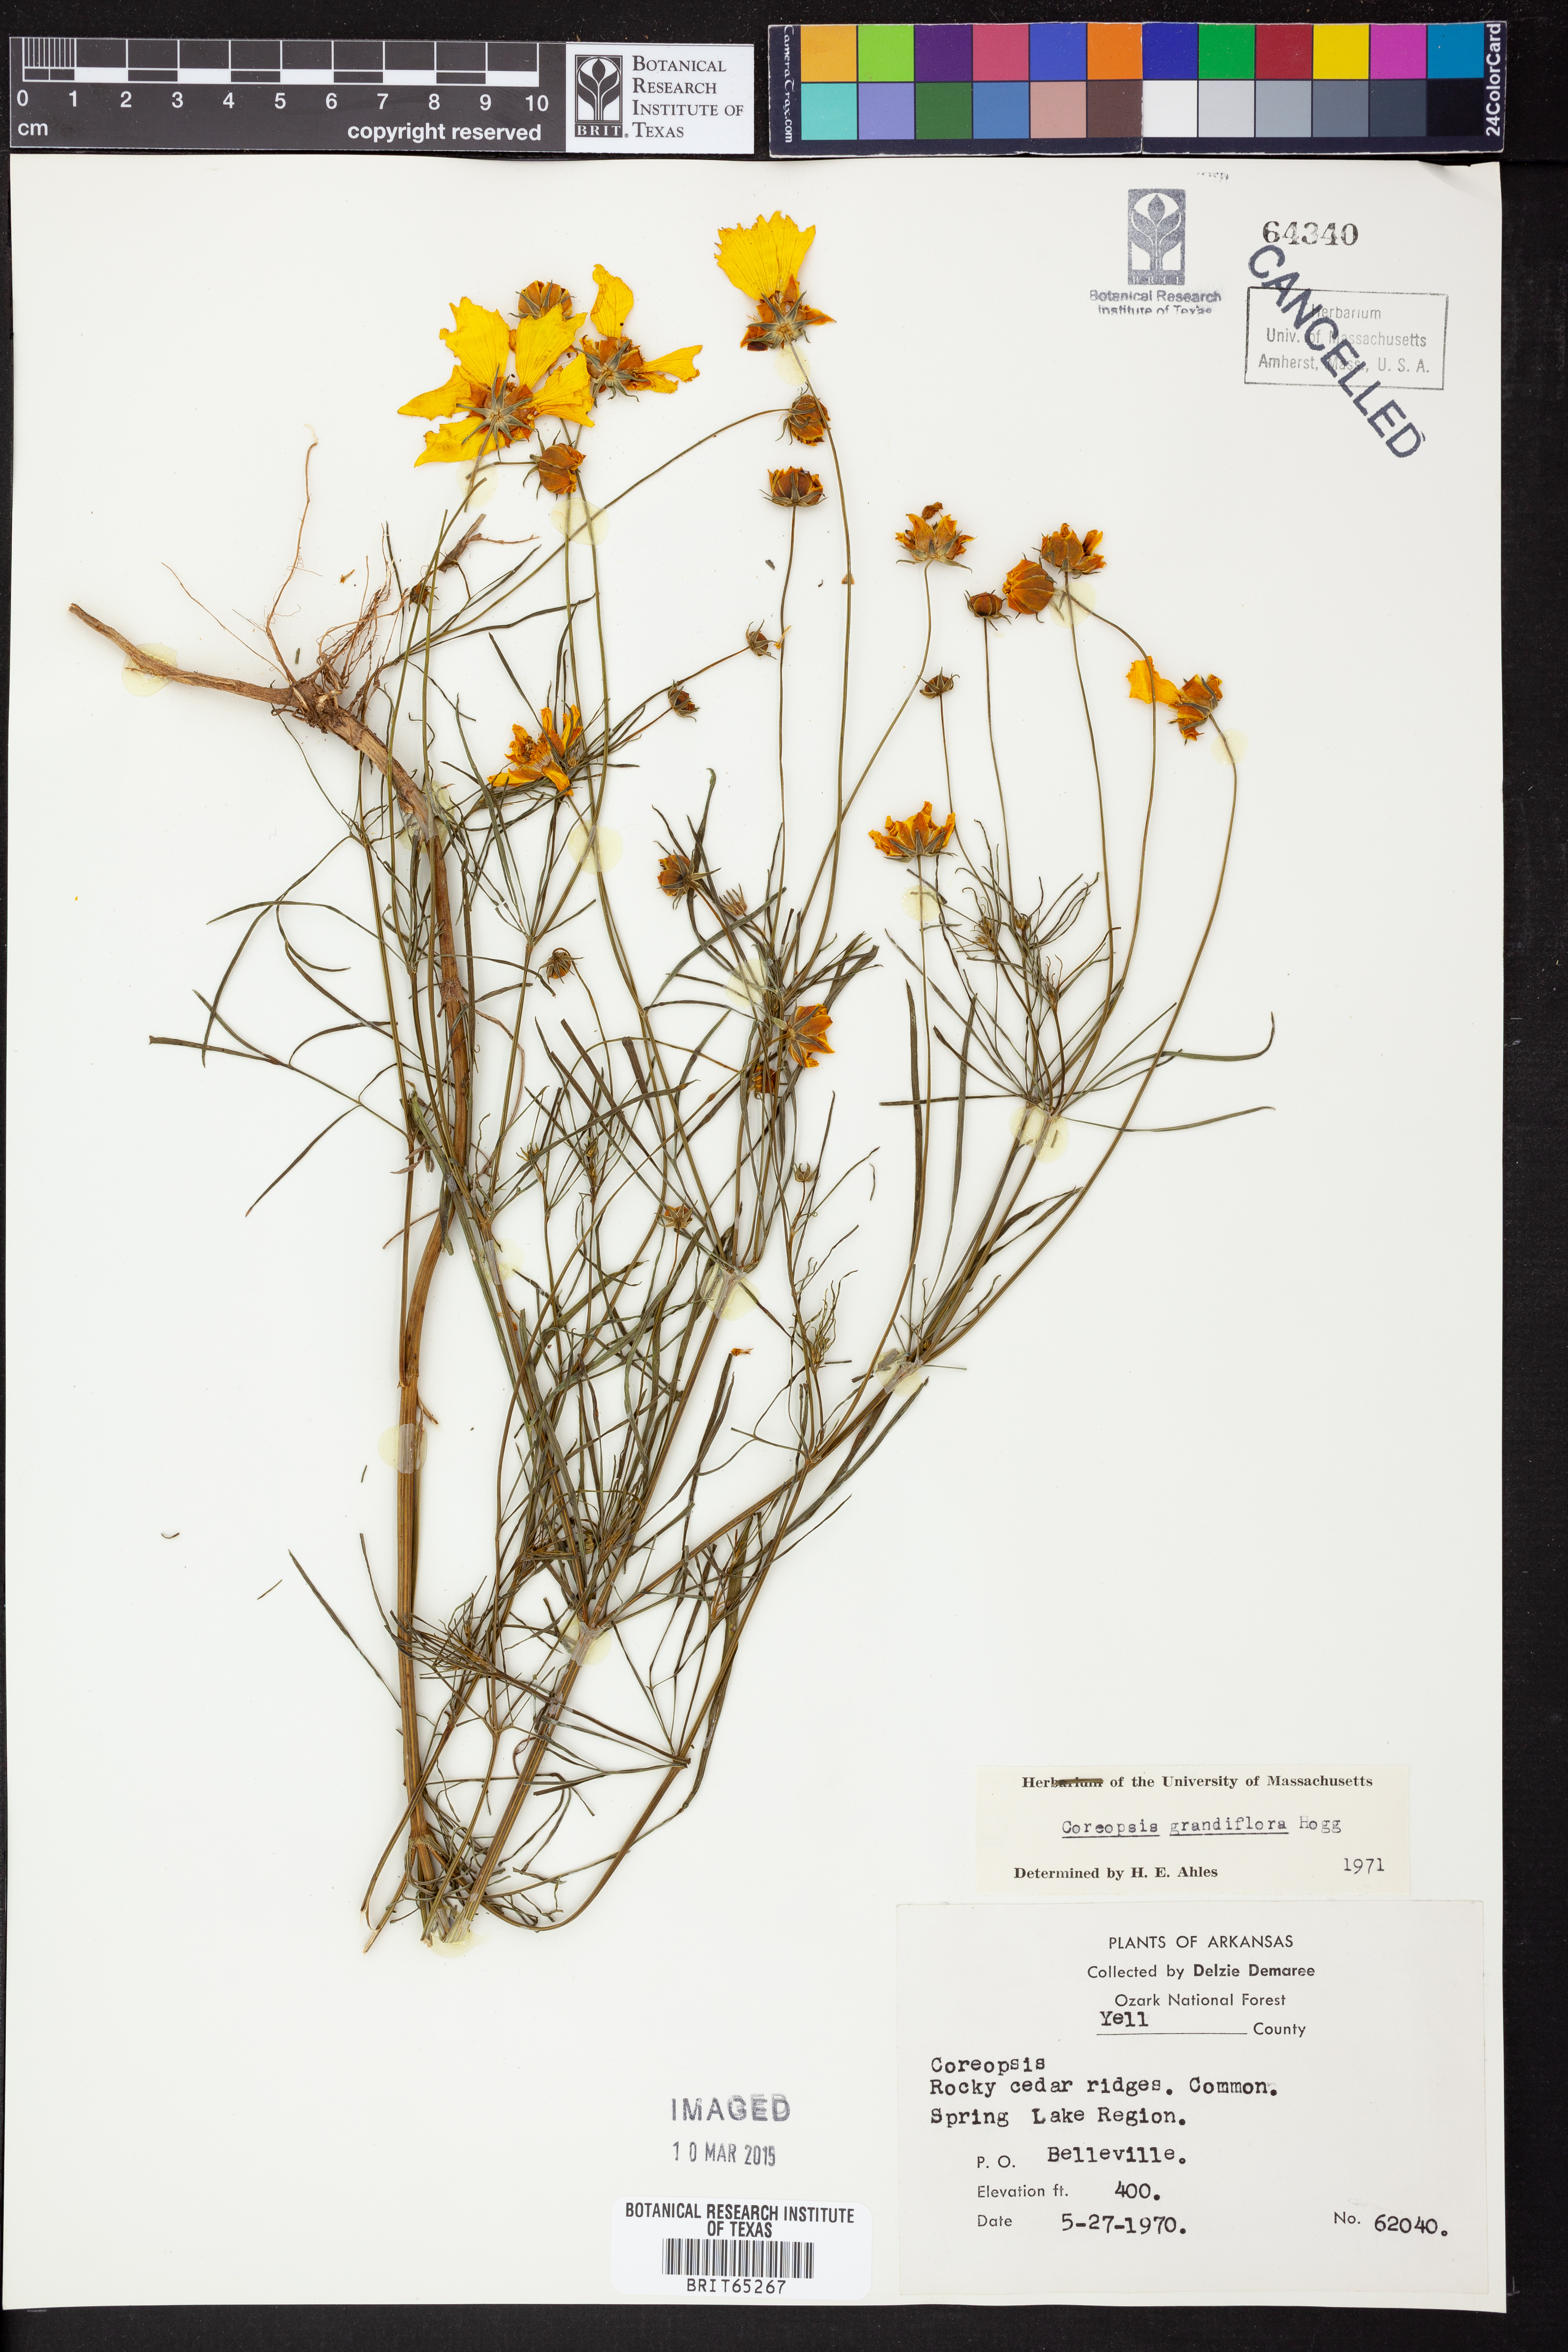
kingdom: Plantae
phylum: Tracheophyta
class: Magnoliopsida
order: Asterales
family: Asteraceae
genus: Coreopsis
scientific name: Coreopsis grandiflora
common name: Large-flowered tickseed
